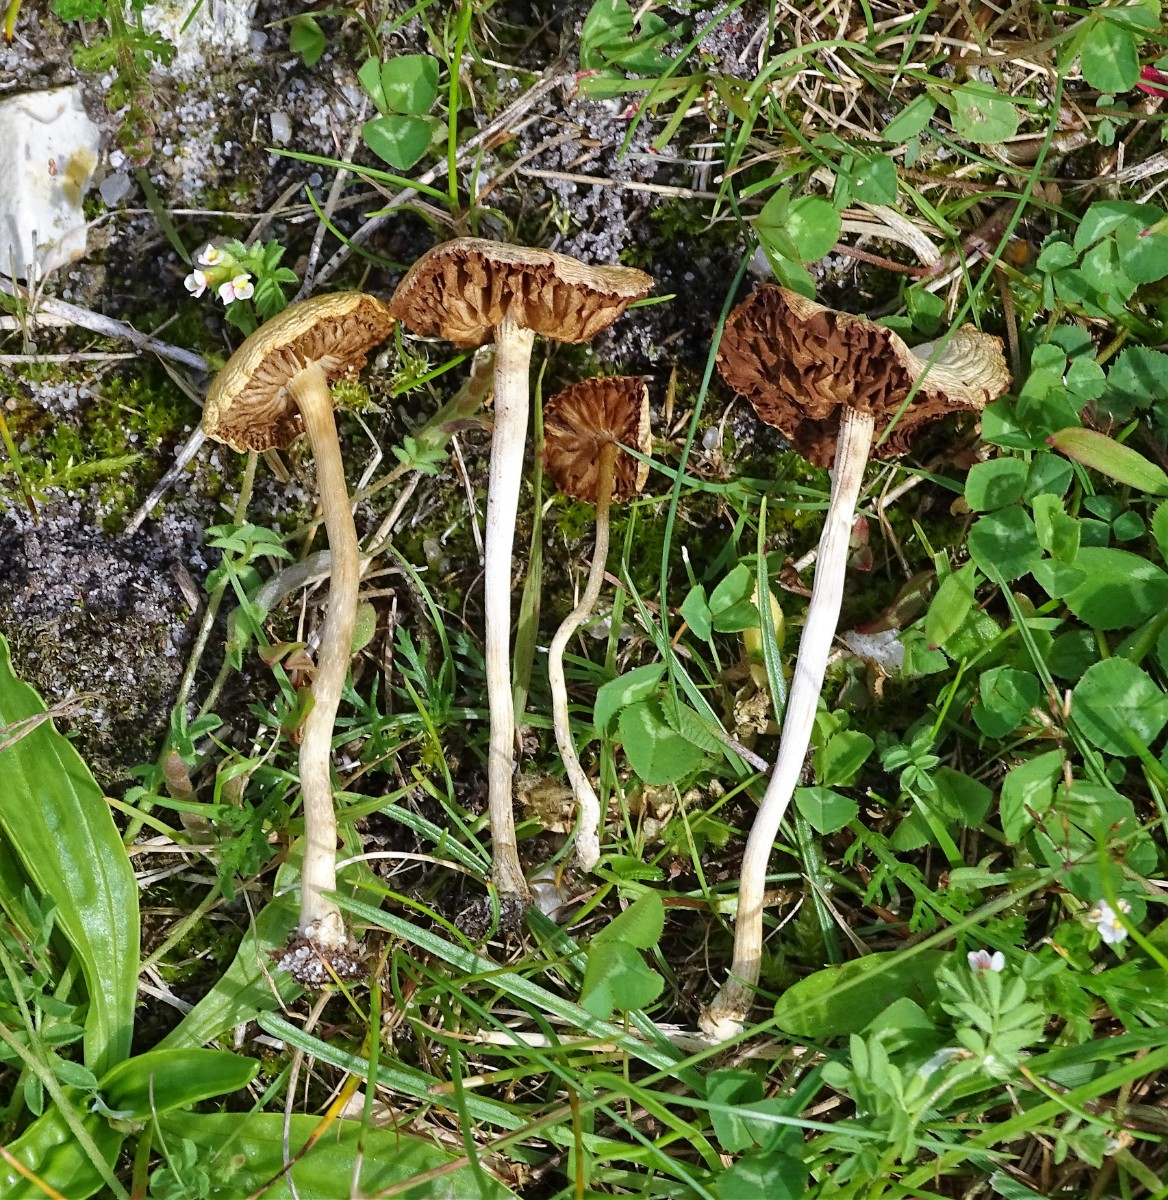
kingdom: Fungi
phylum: Basidiomycota
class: Agaricomycetes
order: Agaricales
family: Strophariaceae
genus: Agrocybe
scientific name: Agrocybe pediades
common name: almindelig agerhat
